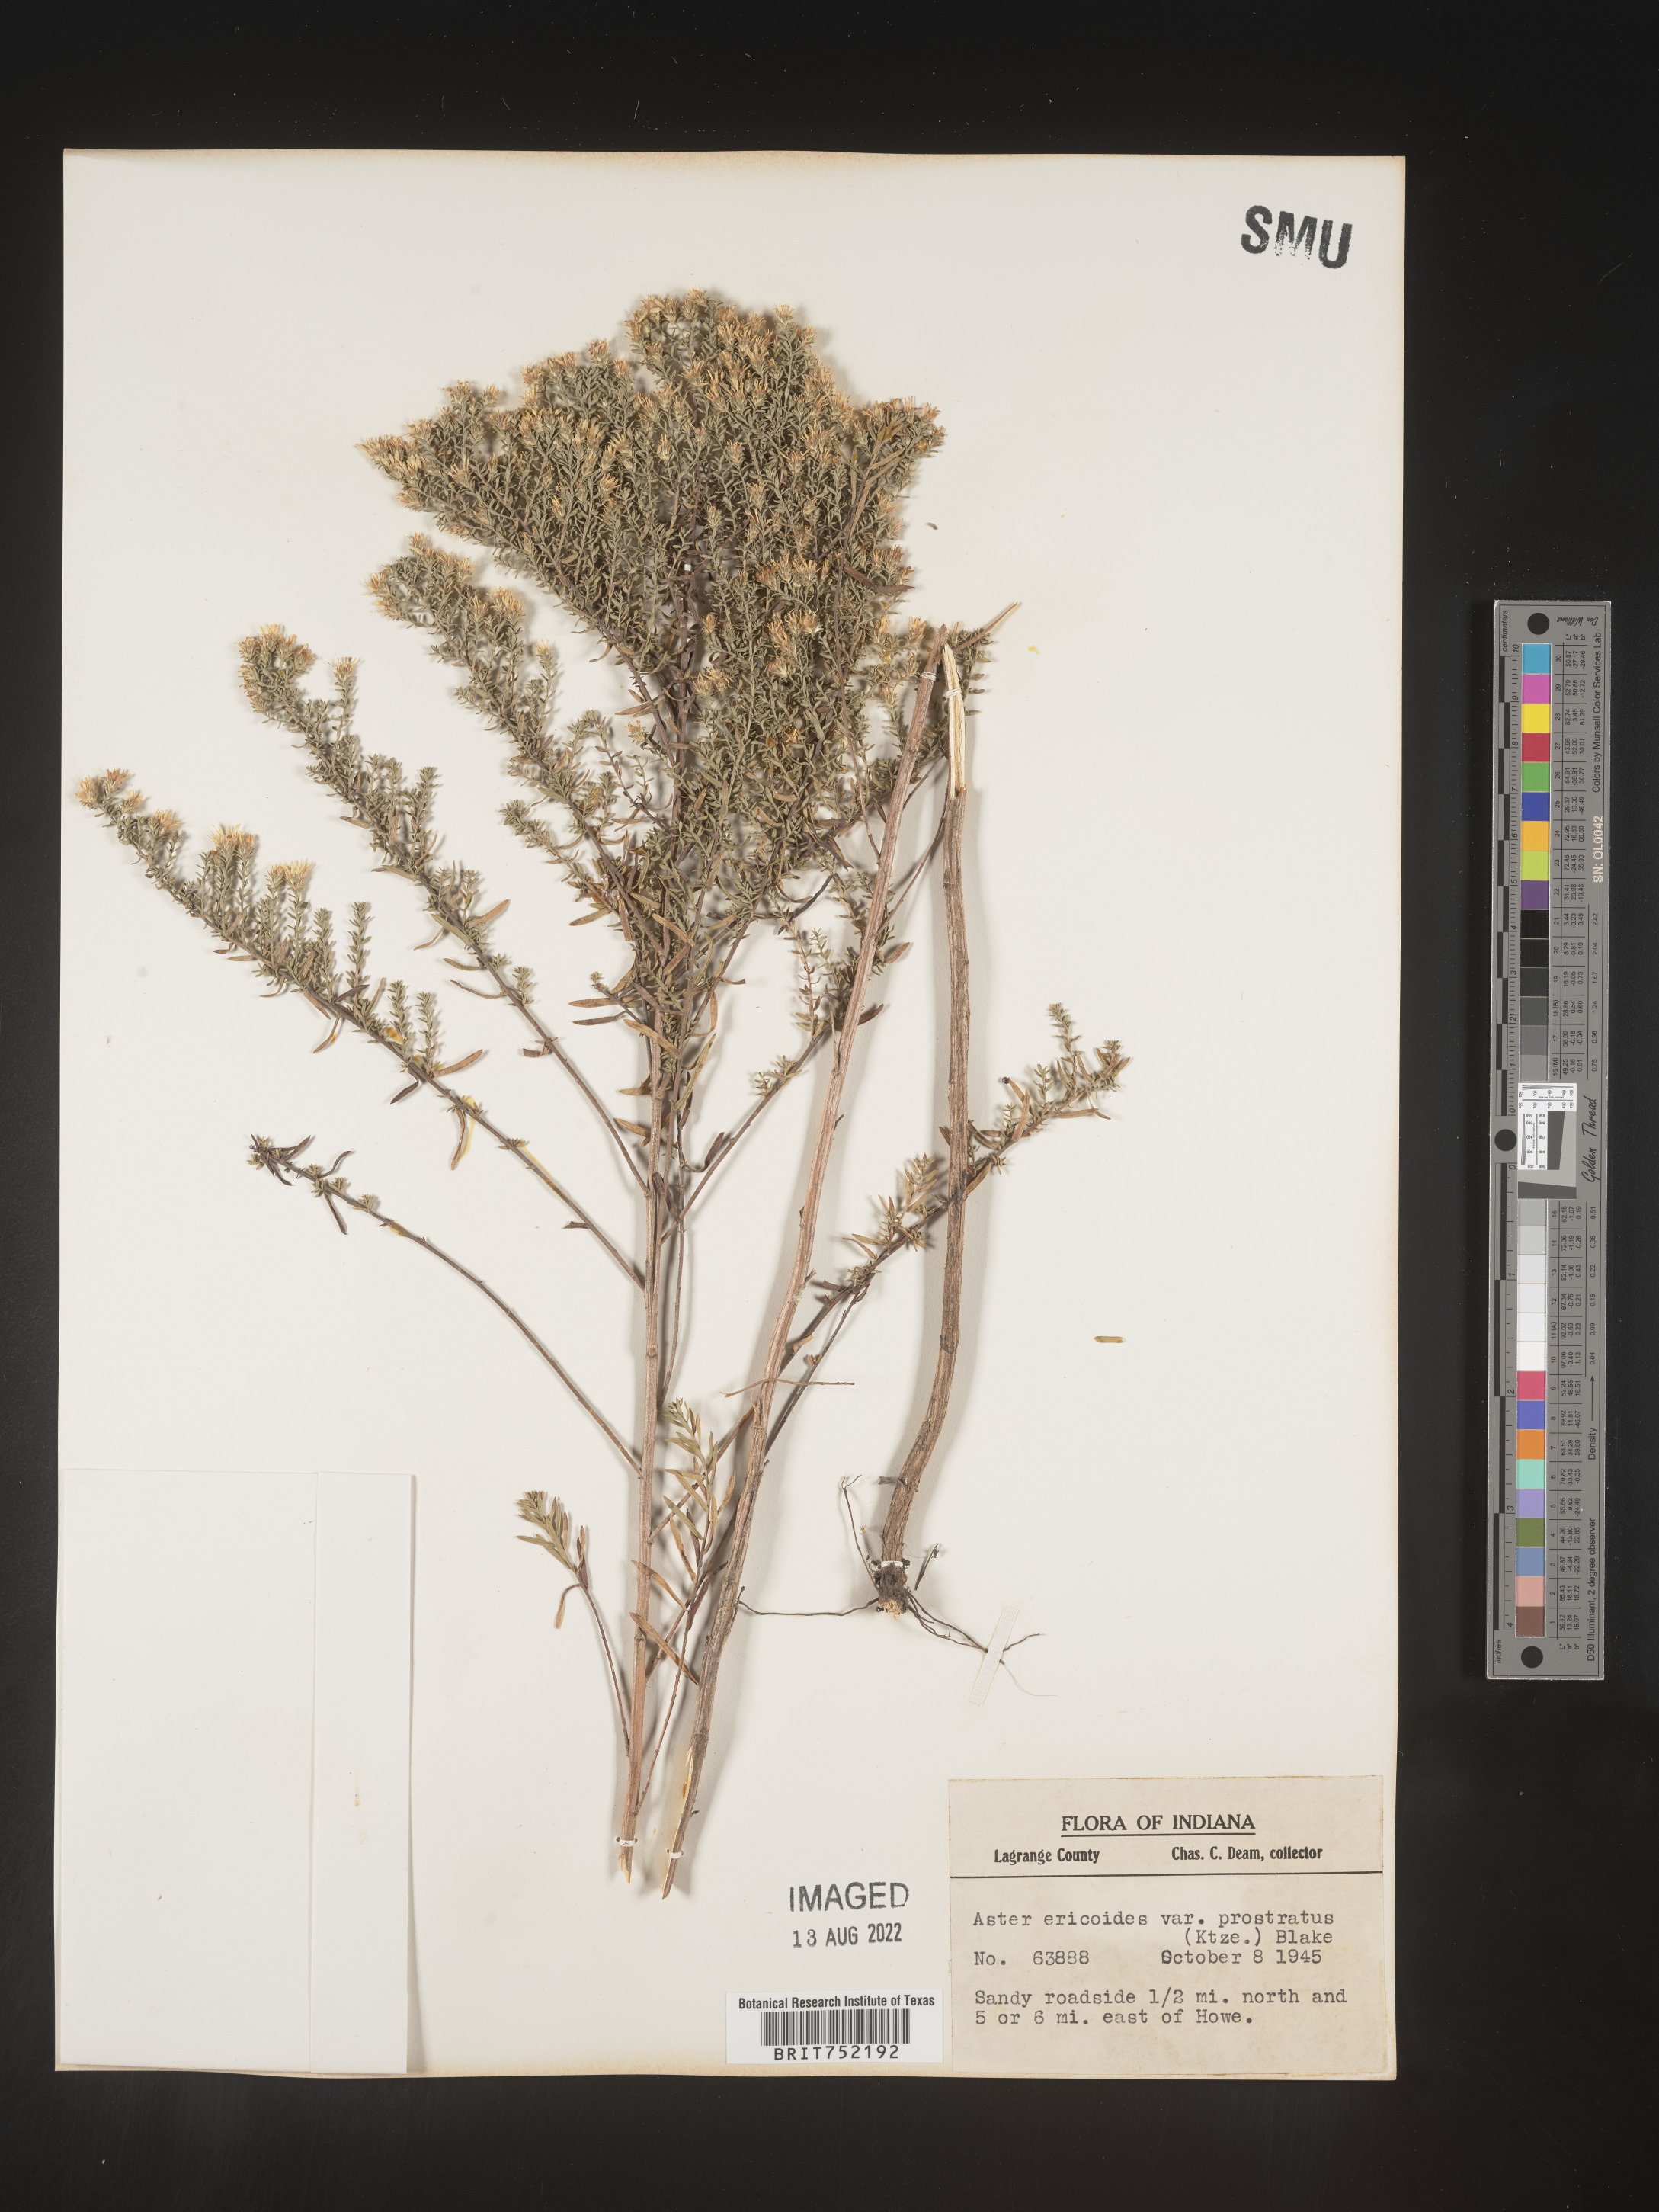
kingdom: Plantae
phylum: Tracheophyta
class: Magnoliopsida
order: Asterales
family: Asteraceae
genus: Symphyotrichum
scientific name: Symphyotrichum ericoides
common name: Heath aster
